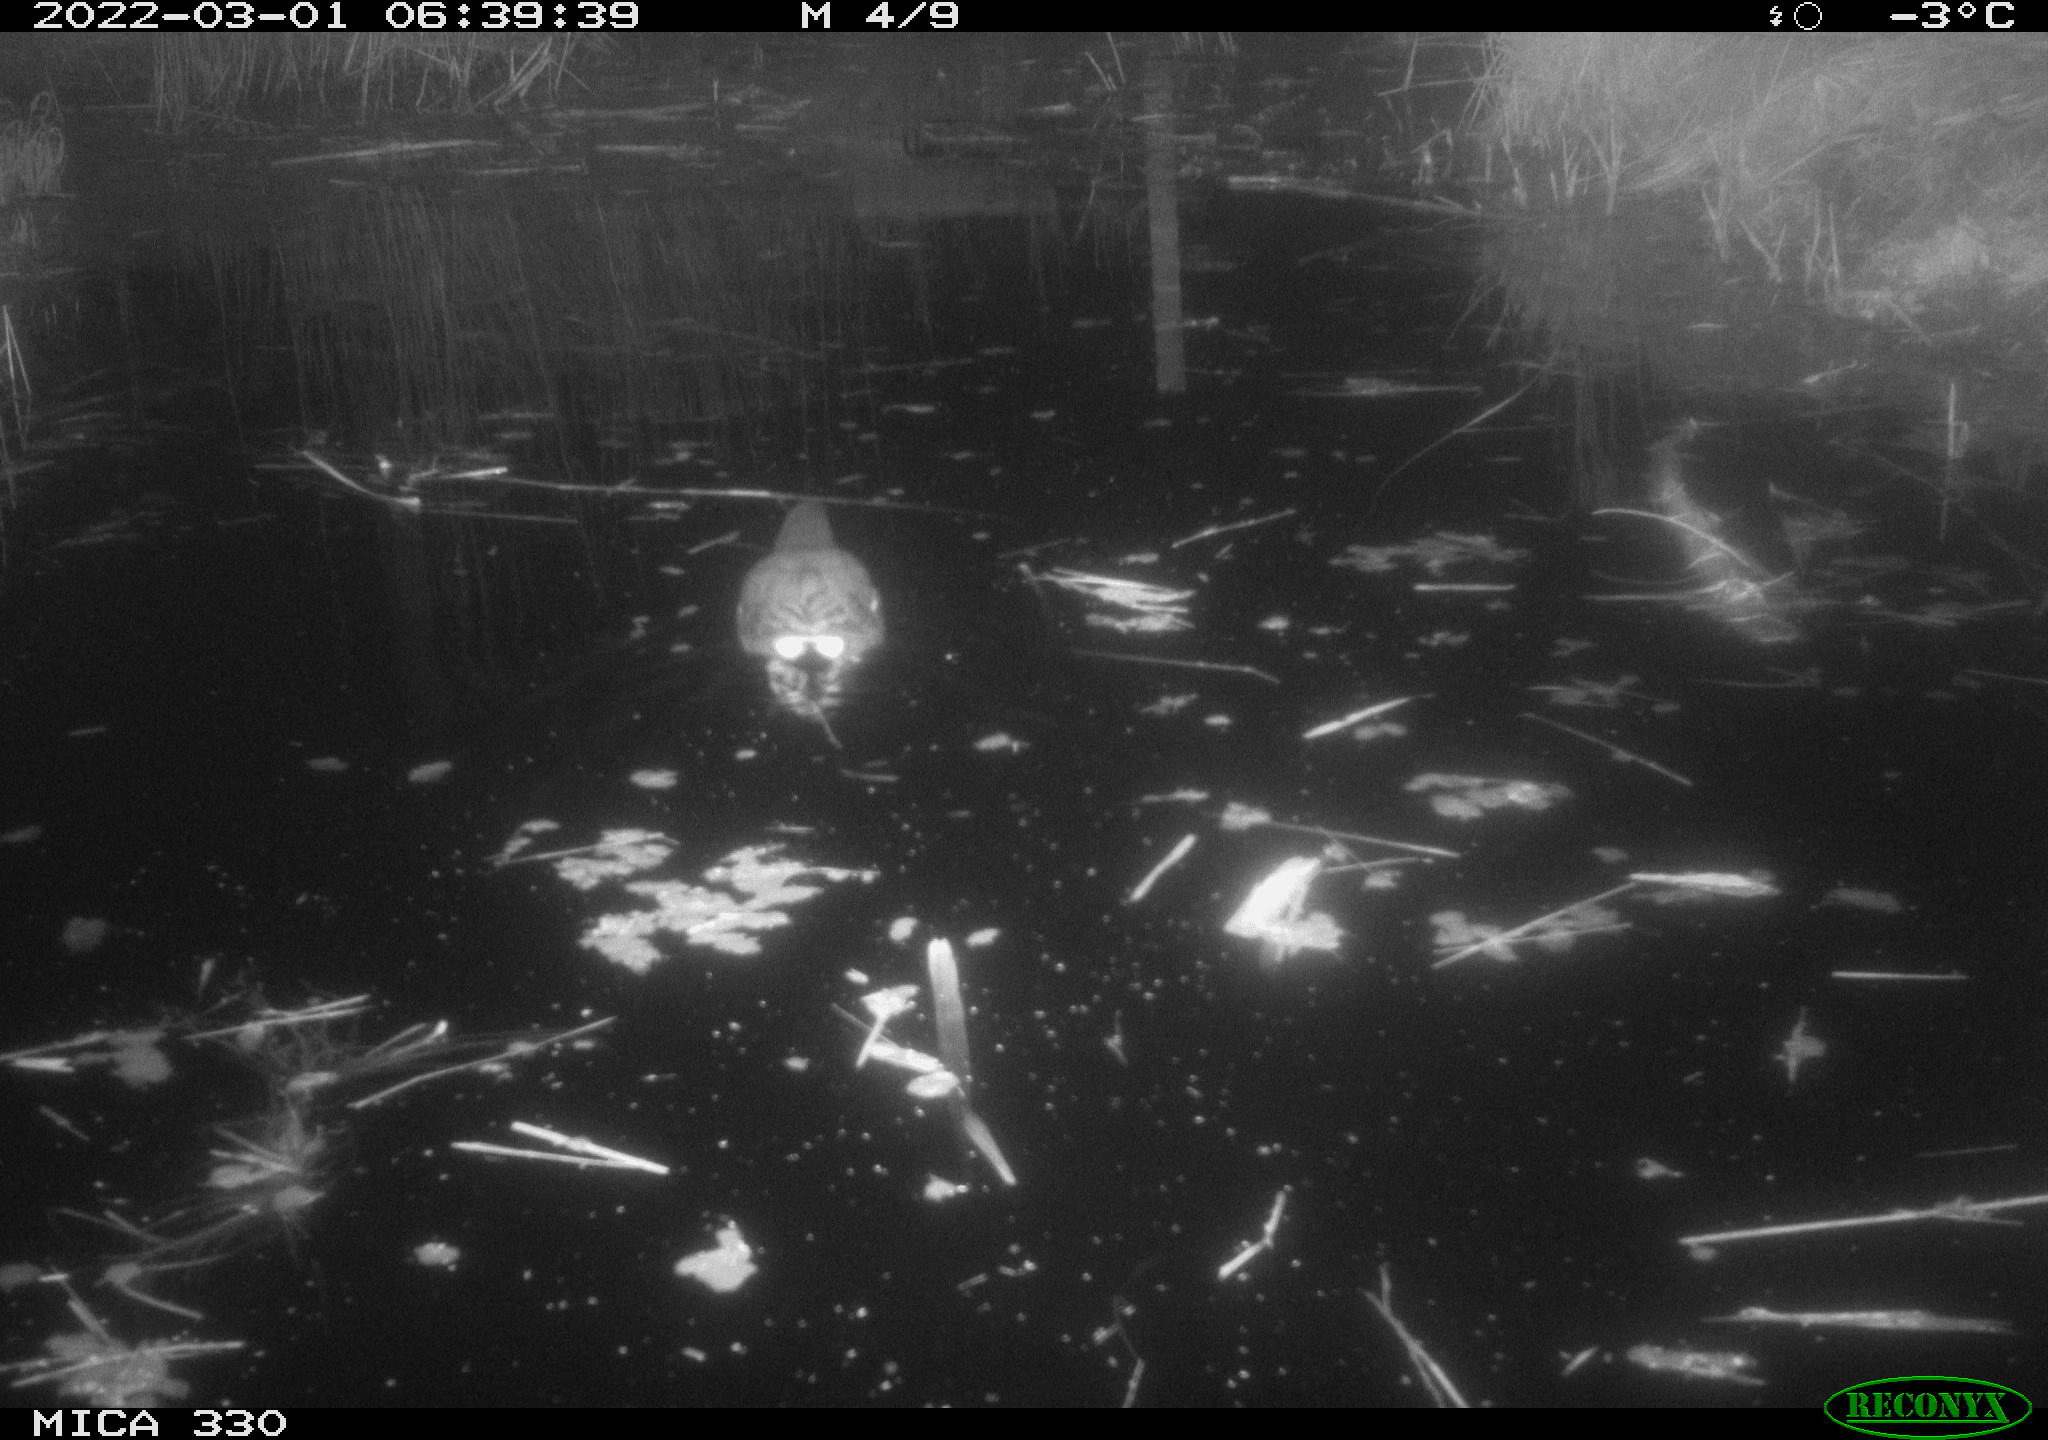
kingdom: Animalia
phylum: Chordata
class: Aves
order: Gruiformes
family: Rallidae
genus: Gallinula
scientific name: Gallinula chloropus
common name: Common moorhen
